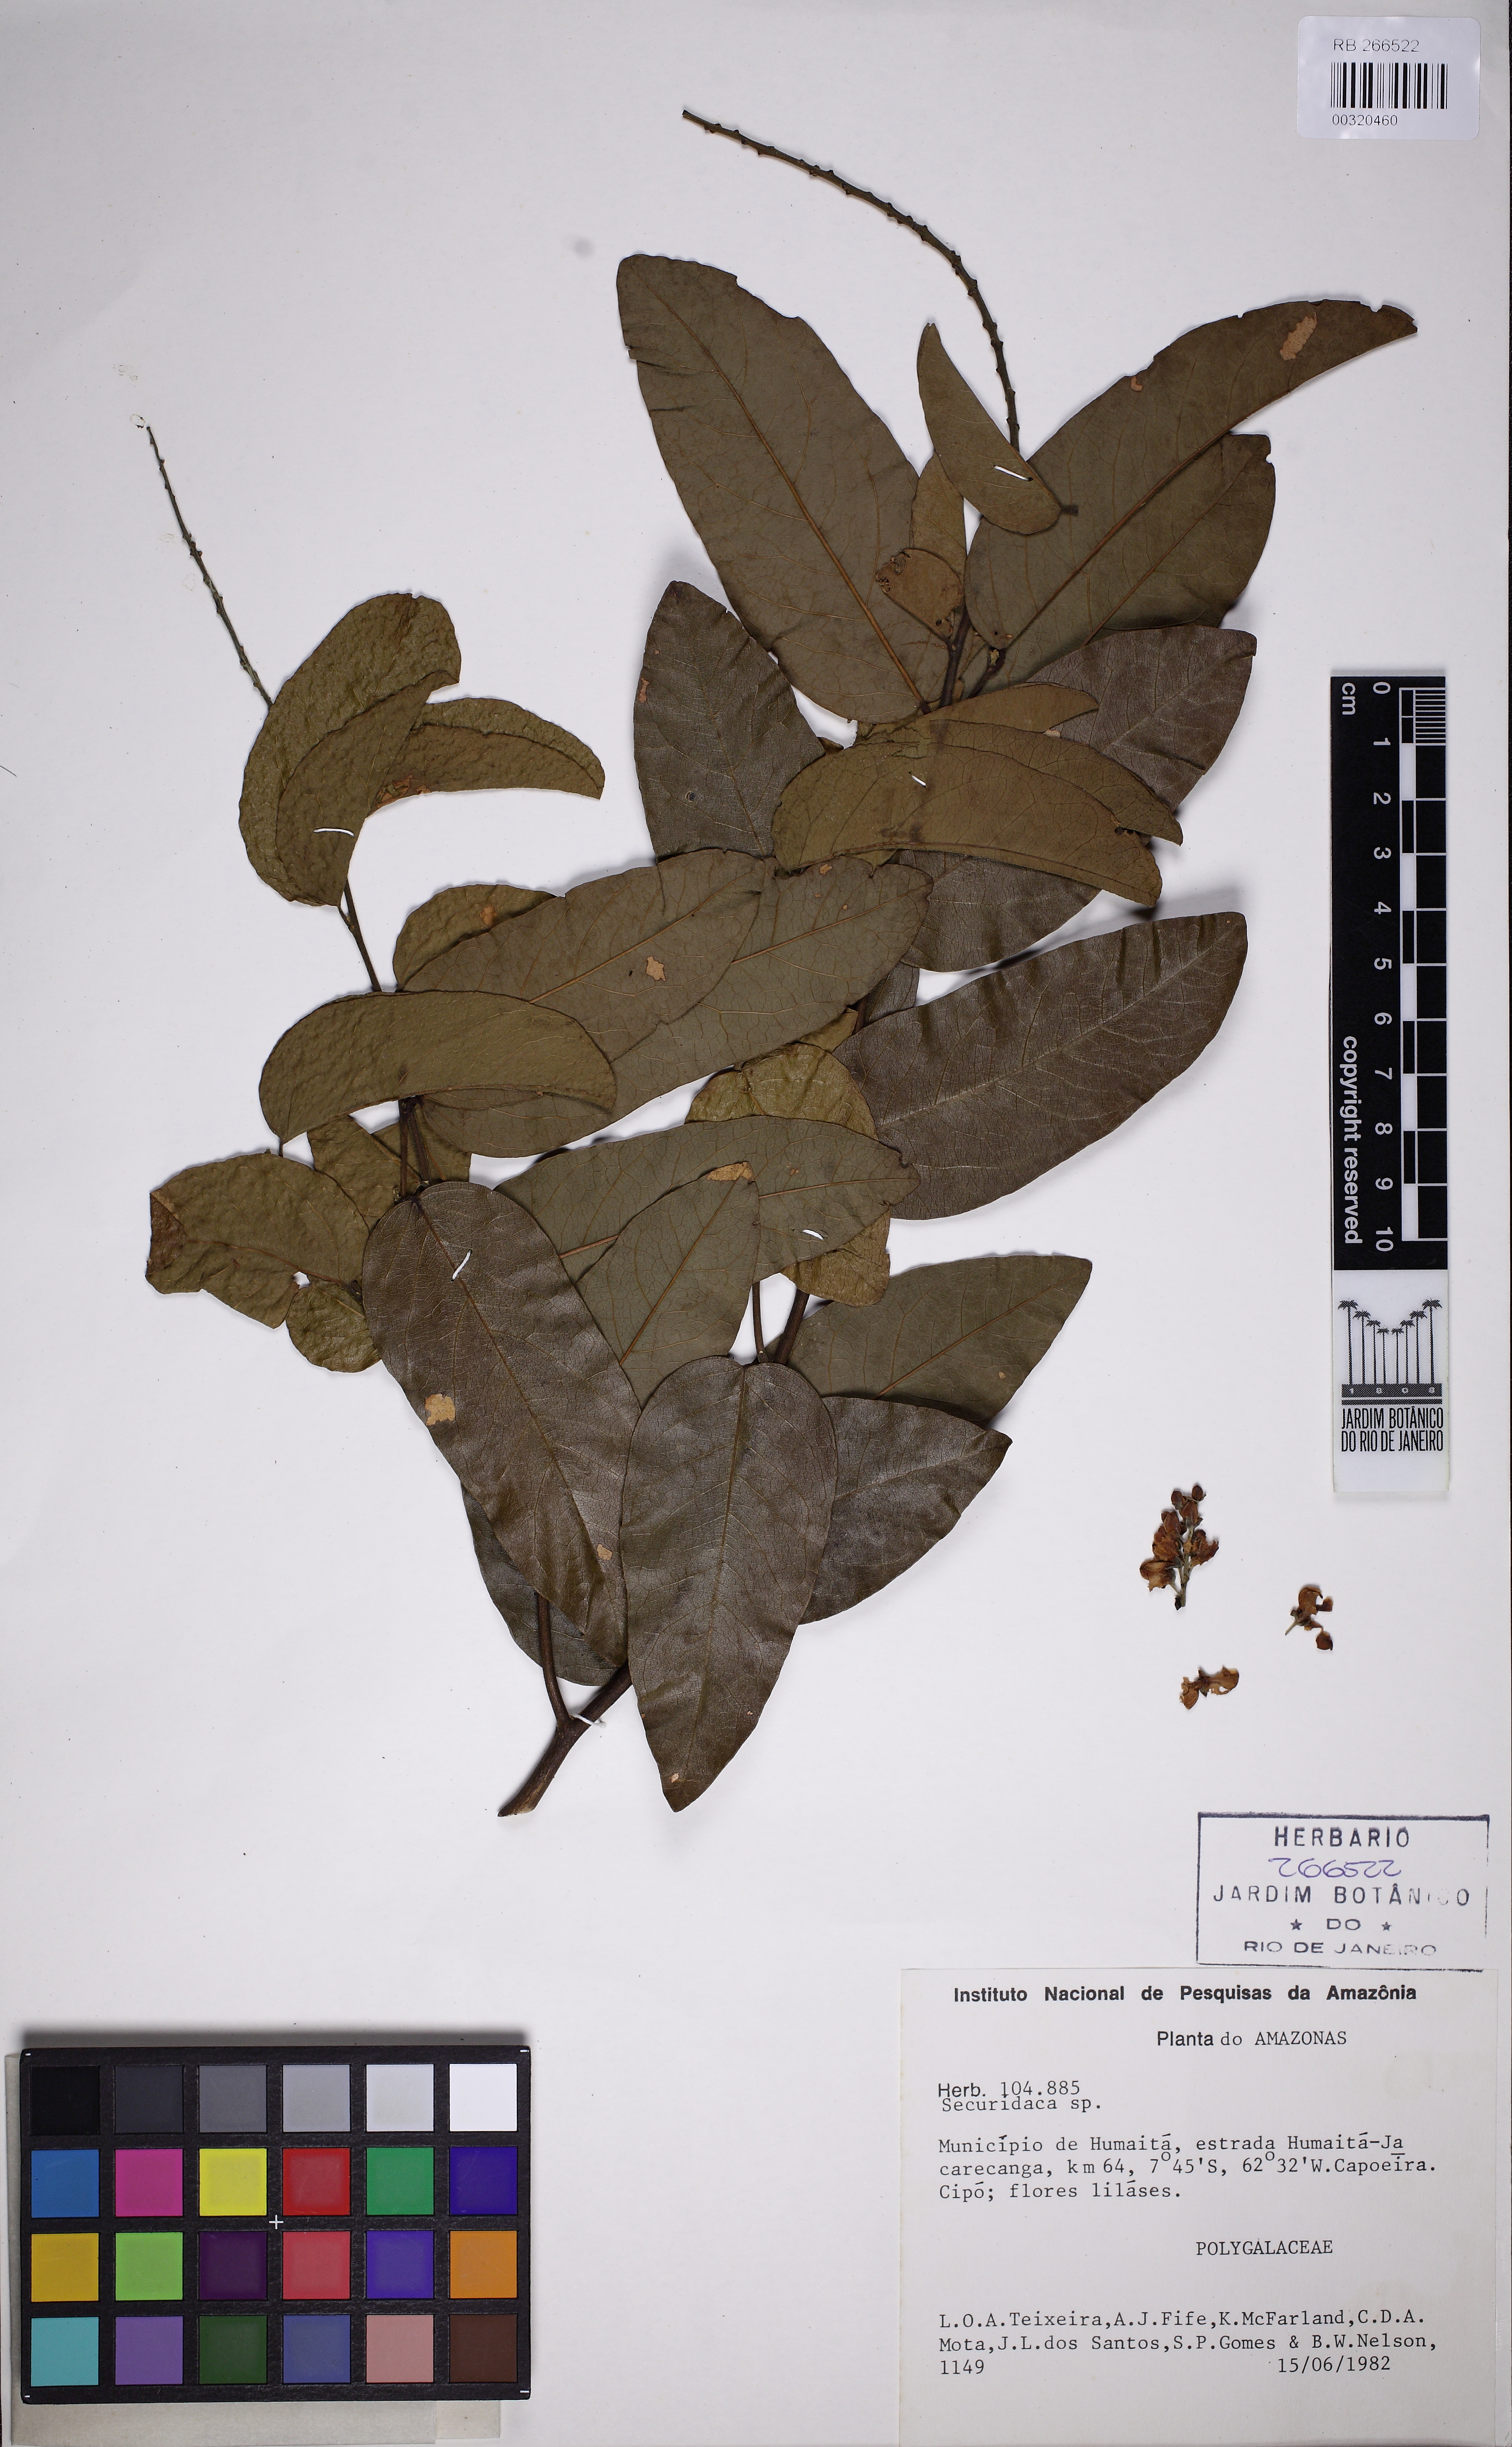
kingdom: Plantae
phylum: Tracheophyta
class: Magnoliopsida
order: Fabales
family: Polygalaceae
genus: Securidaca
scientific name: Securidaca
